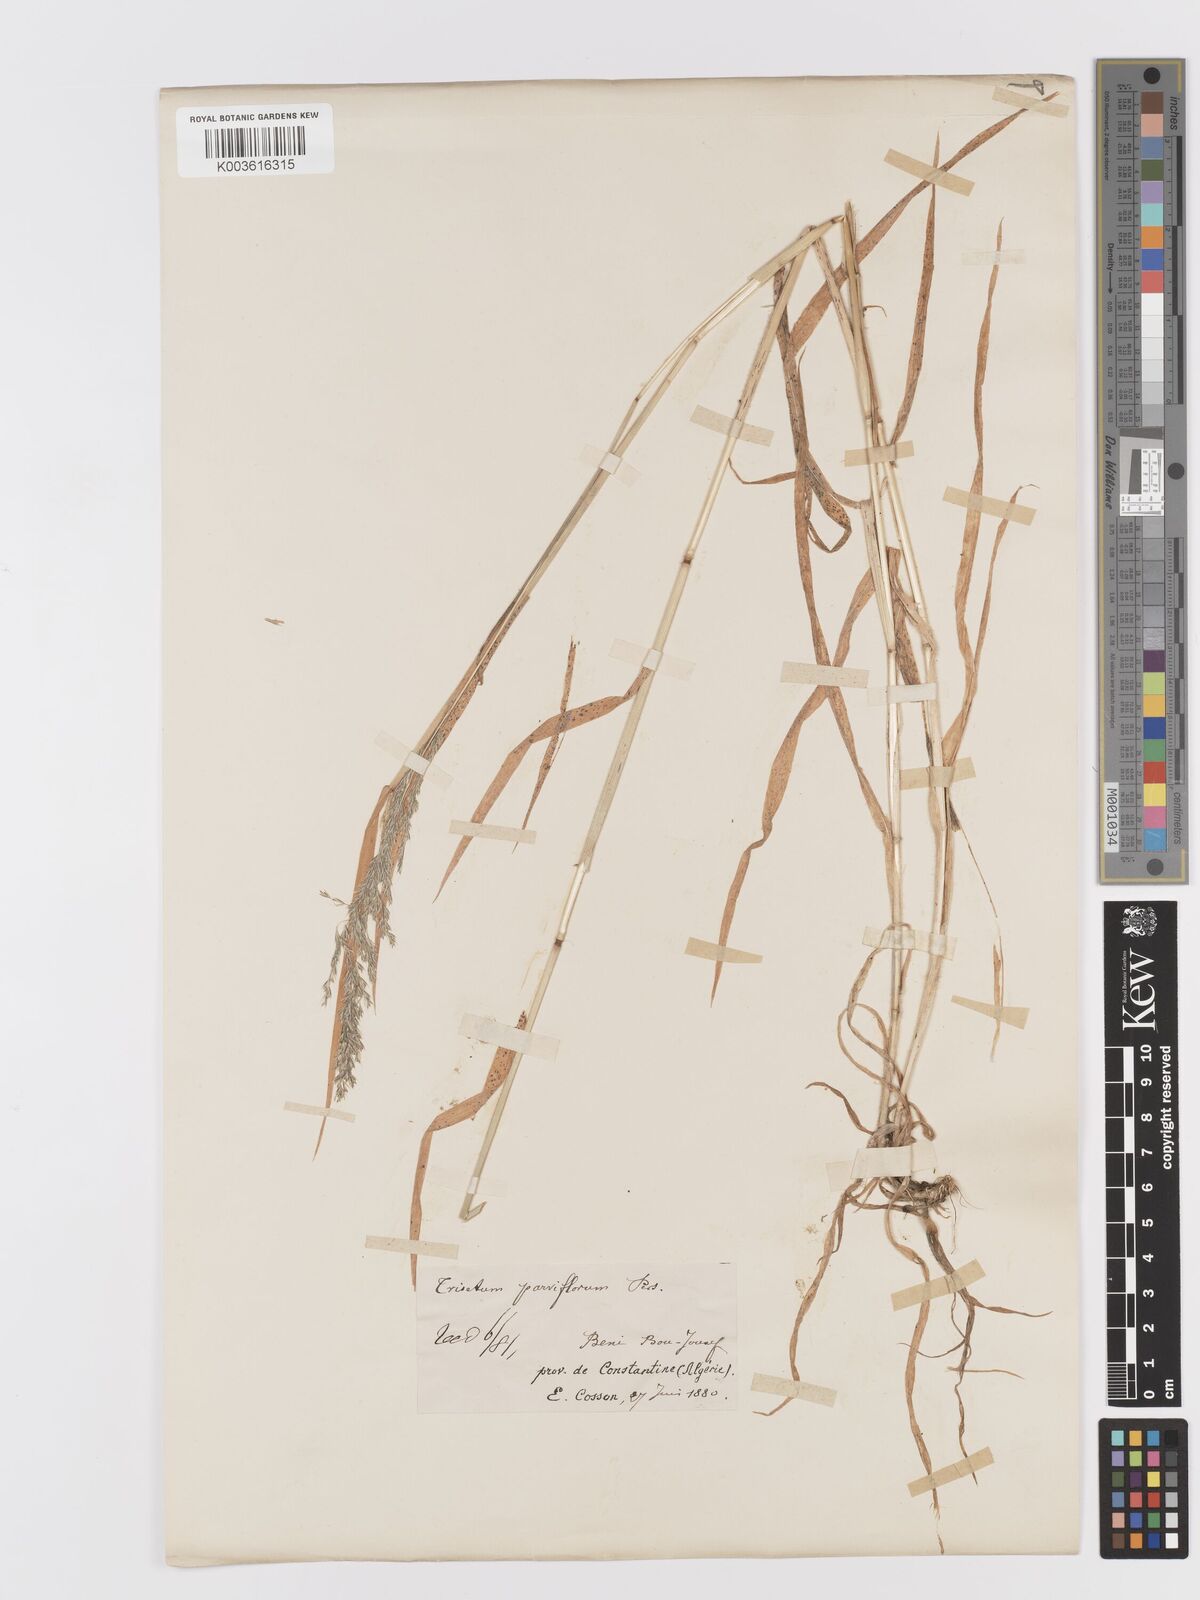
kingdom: Plantae
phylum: Tracheophyta
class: Liliopsida
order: Poales
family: Poaceae
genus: Trisetaria
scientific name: Trisetaria parviflora
